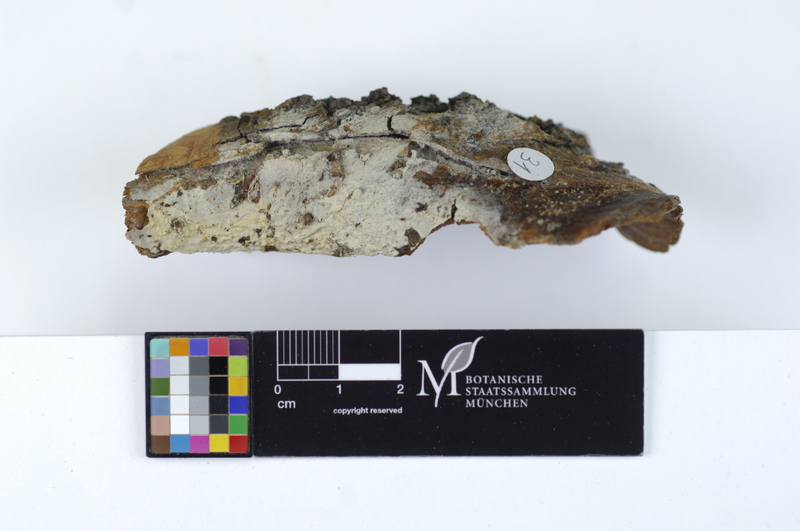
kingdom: Plantae
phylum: Tracheophyta
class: Magnoliopsida
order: Malpighiales
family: Salicaceae
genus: Salix
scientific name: Salix
